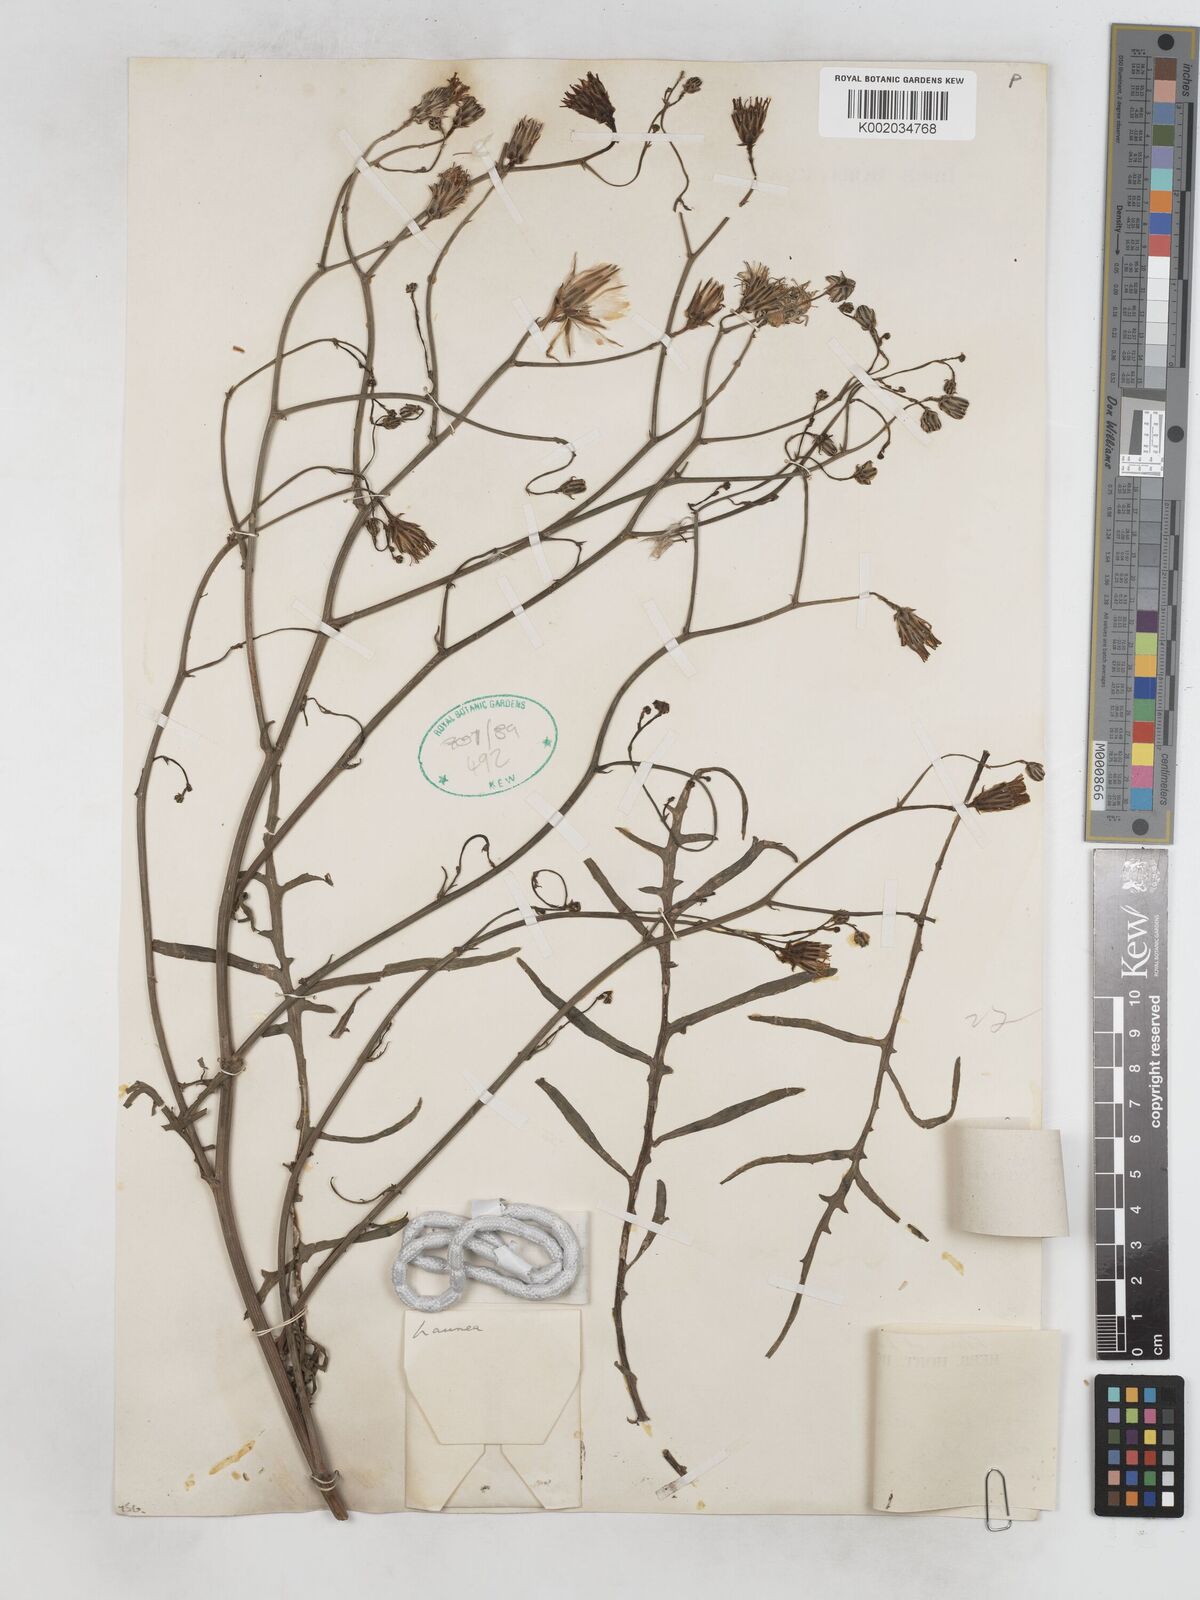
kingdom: Plantae
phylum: Tracheophyta
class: Magnoliopsida
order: Asterales
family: Asteraceae
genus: Launaea
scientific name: Launaea fragilis
